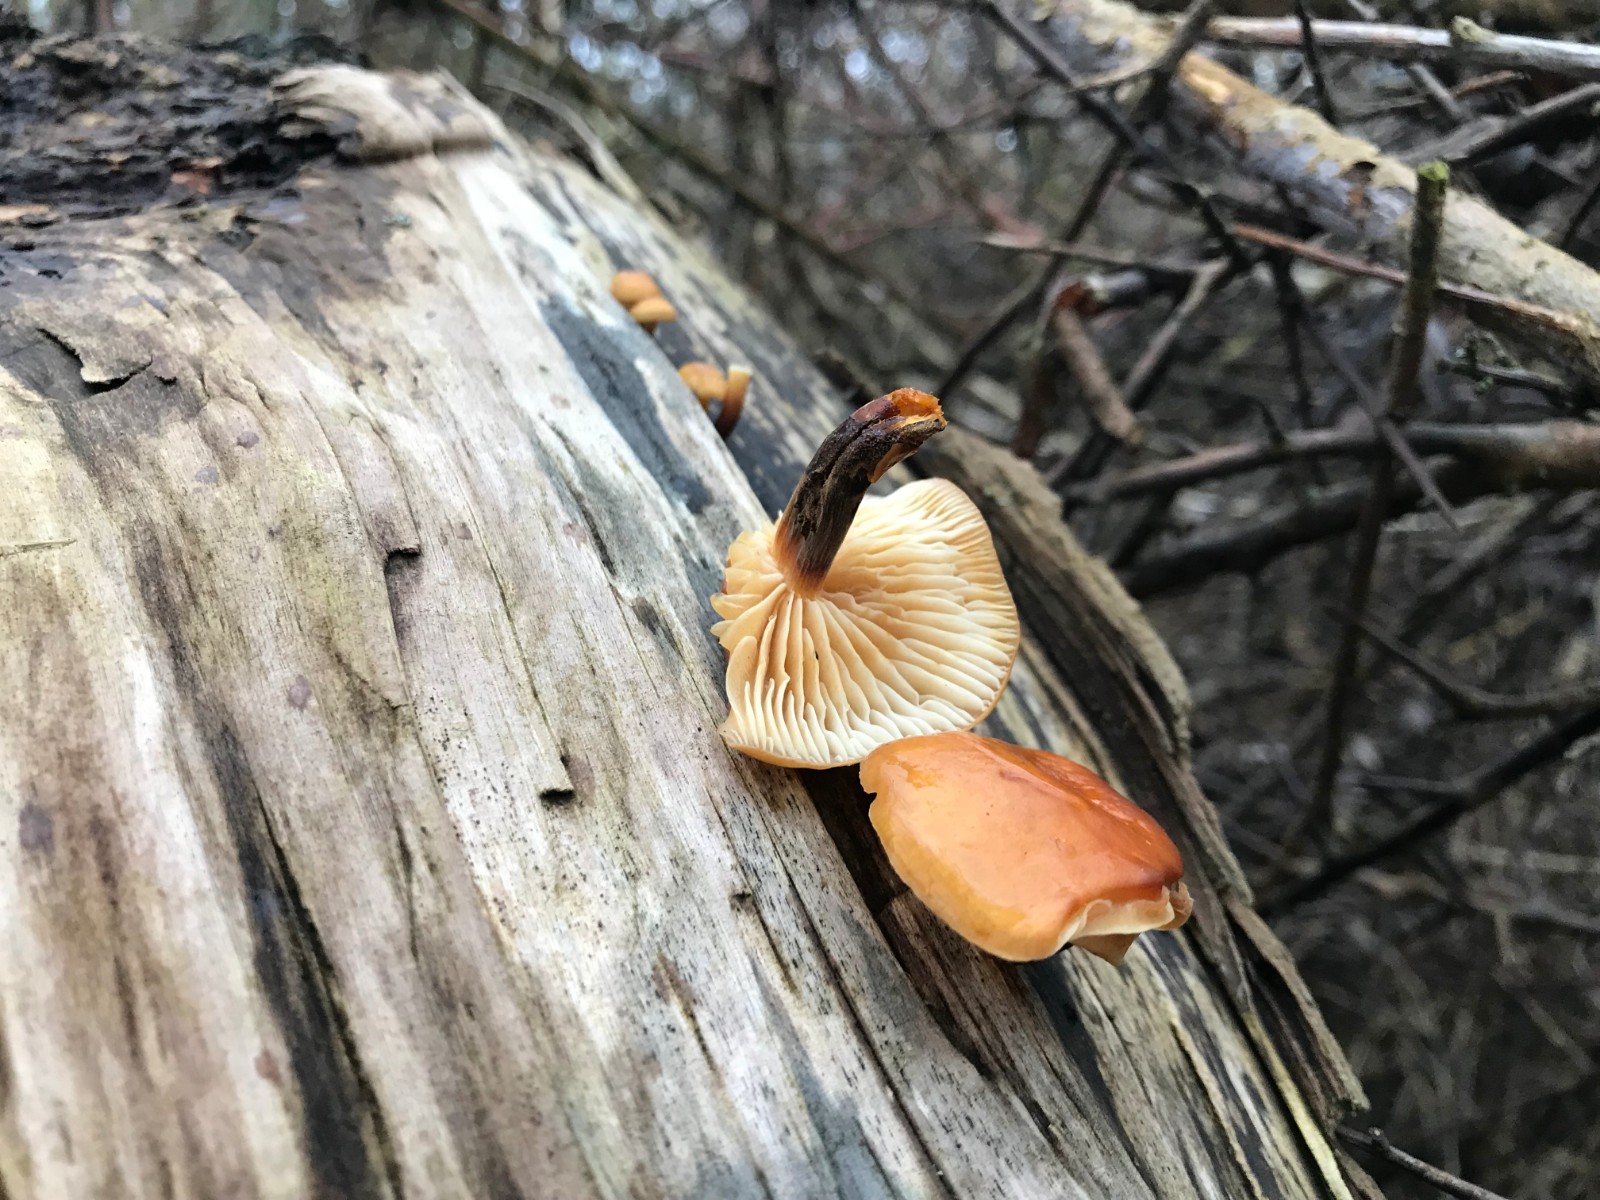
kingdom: Fungi
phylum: Basidiomycota
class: Agaricomycetes
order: Agaricales
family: Physalacriaceae
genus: Flammulina
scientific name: Flammulina
